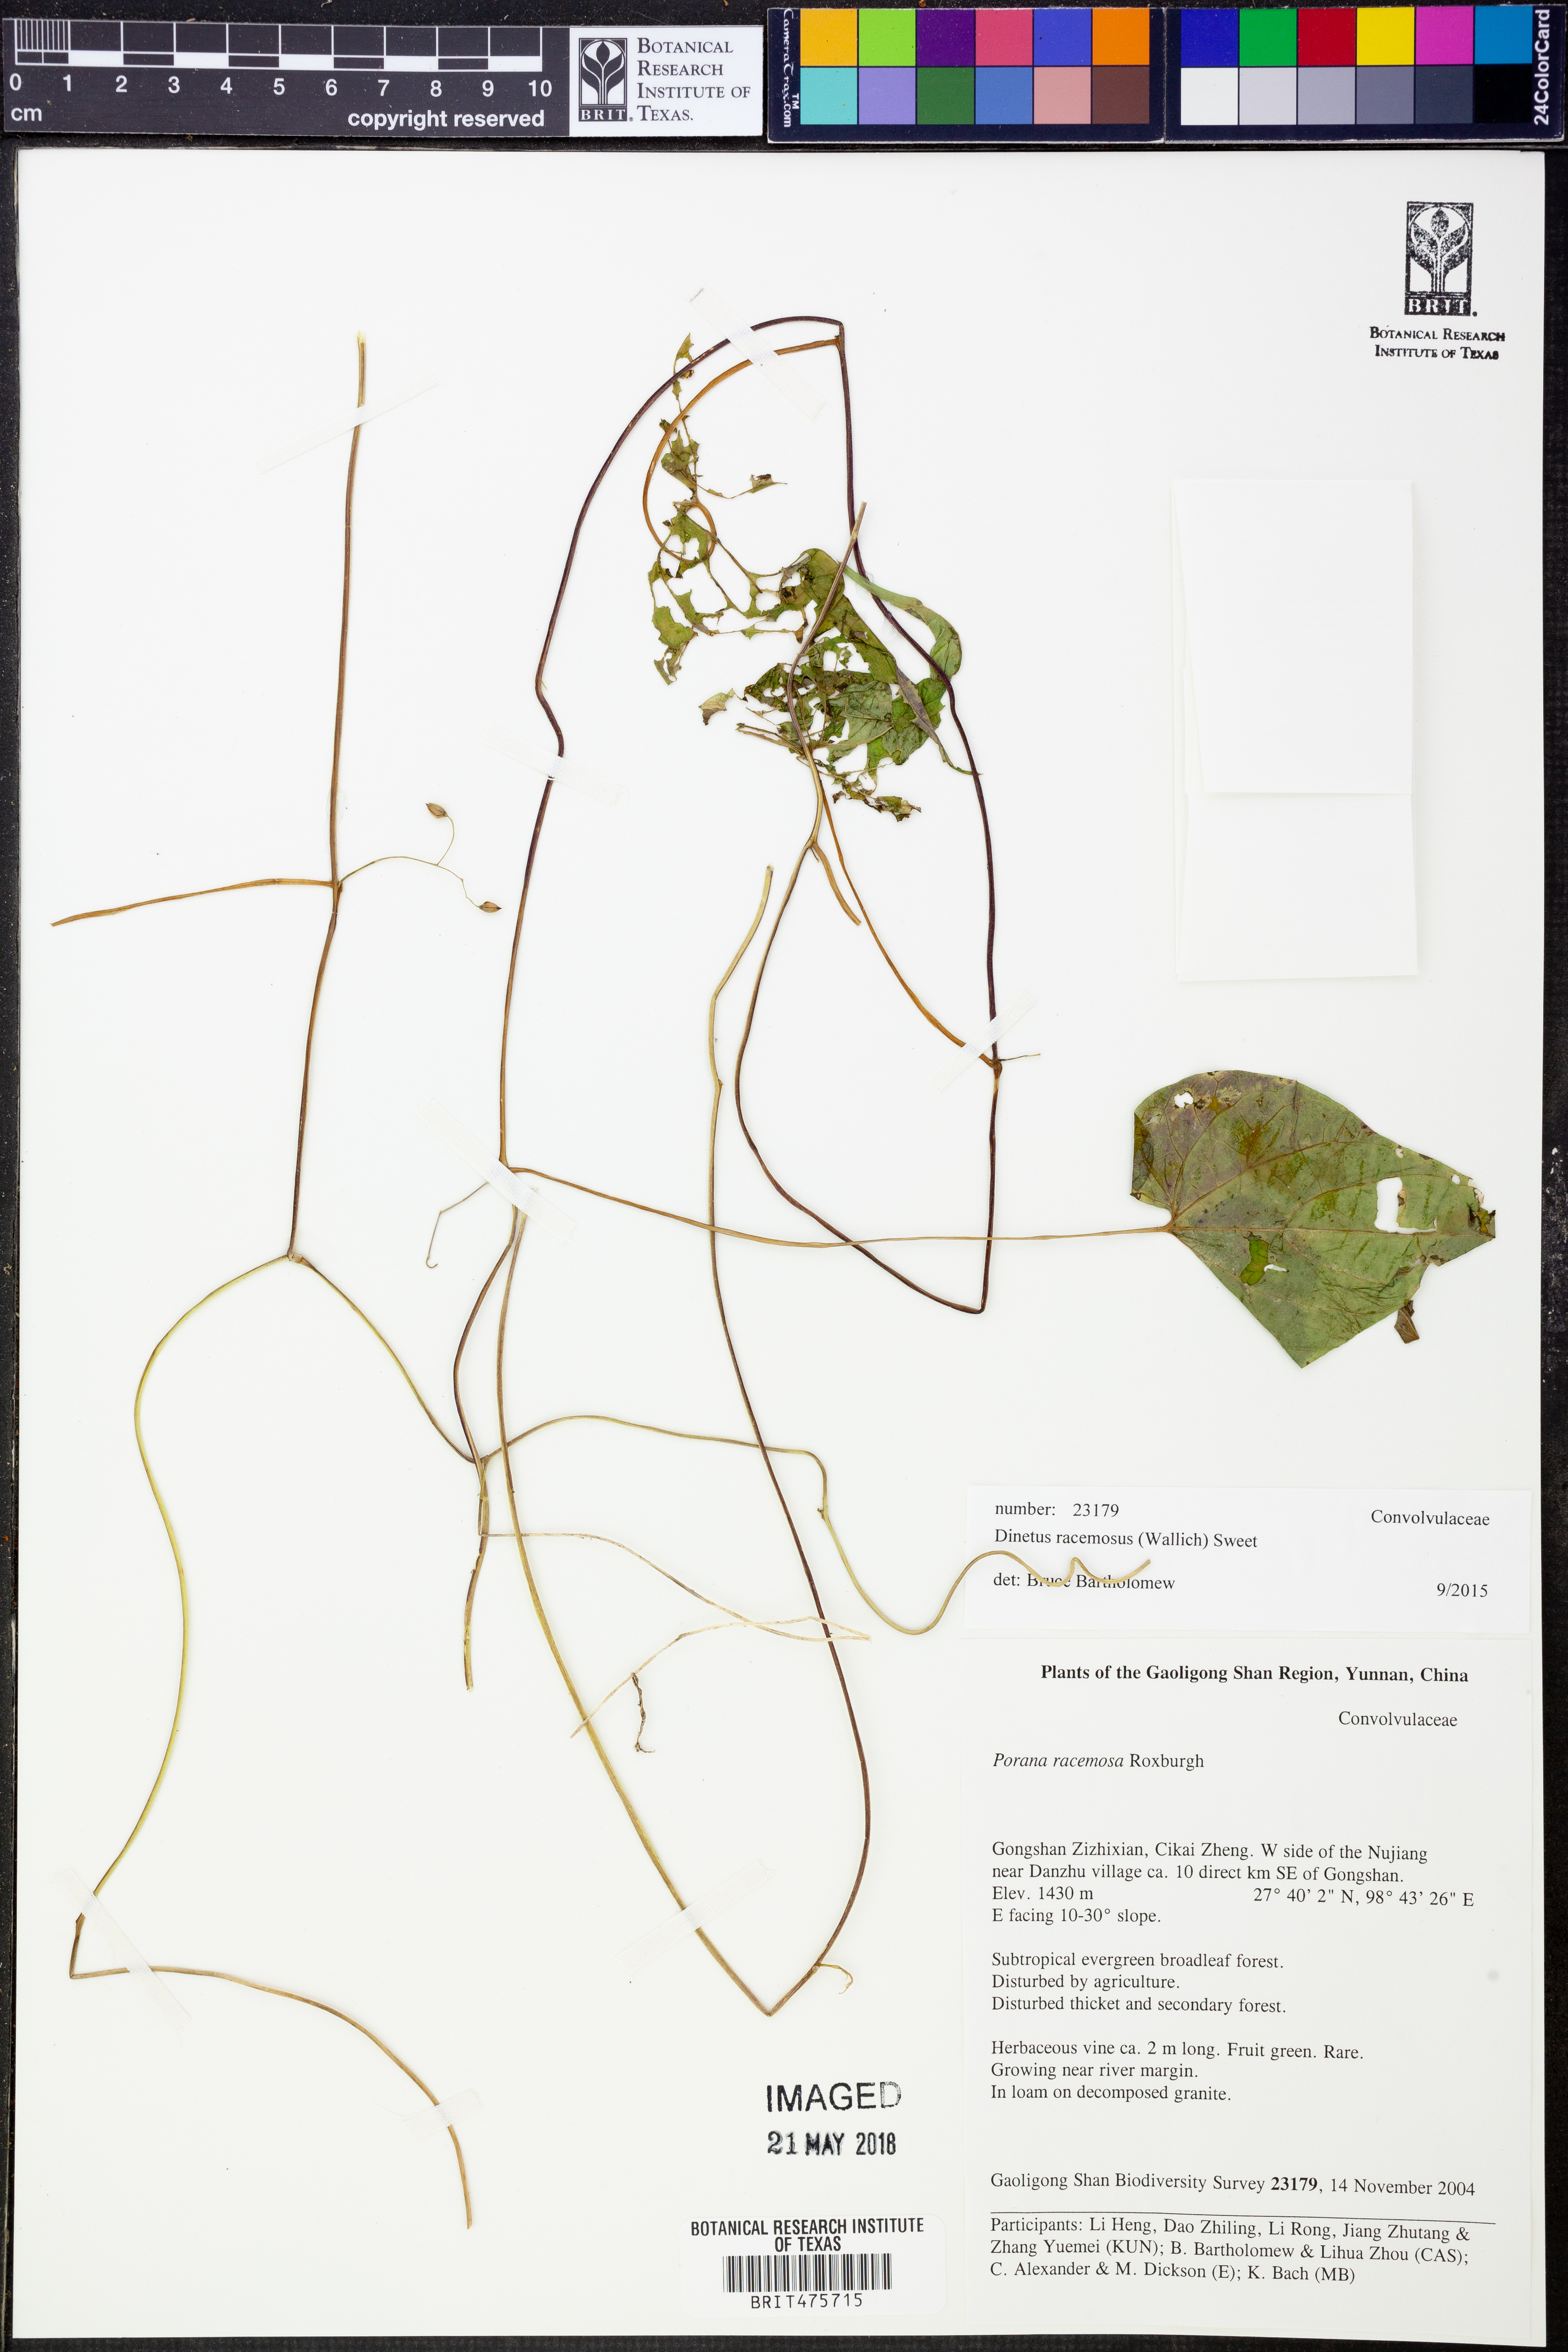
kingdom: Plantae
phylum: Tracheophyta
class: Magnoliopsida
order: Solanales
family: Convolvulaceae
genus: Porana
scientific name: Porana racemosa
